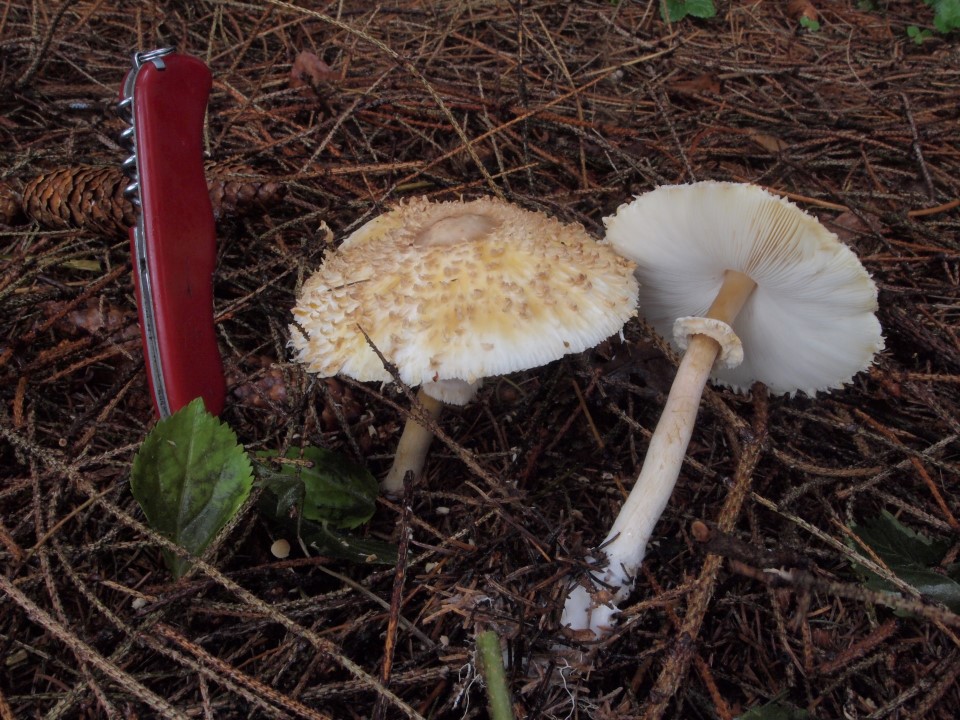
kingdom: Fungi
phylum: Basidiomycota
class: Agaricomycetes
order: Agaricales
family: Agaricaceae
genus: Leucoagaricus
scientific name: Leucoagaricus nympharum
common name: gran-silkehat
